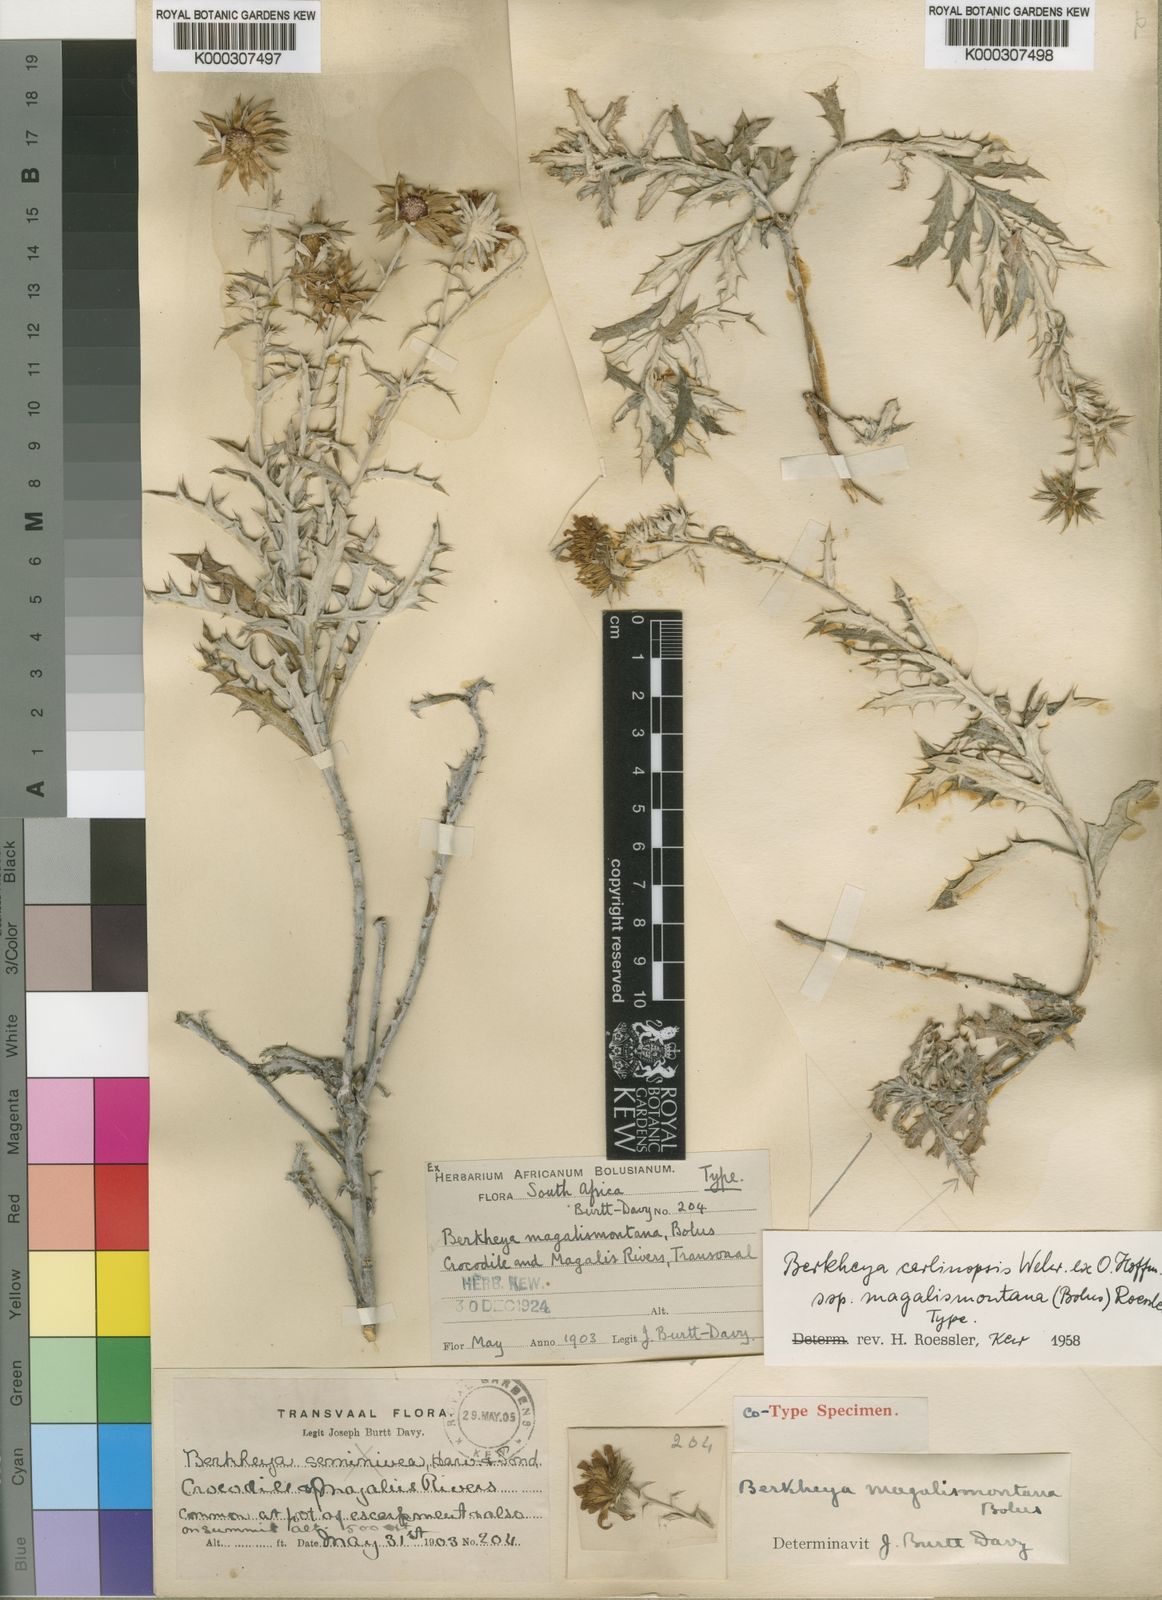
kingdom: Plantae
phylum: Tracheophyta
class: Magnoliopsida
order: Asterales
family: Asteraceae
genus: Berkheya
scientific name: Berkheya carlinopsis
